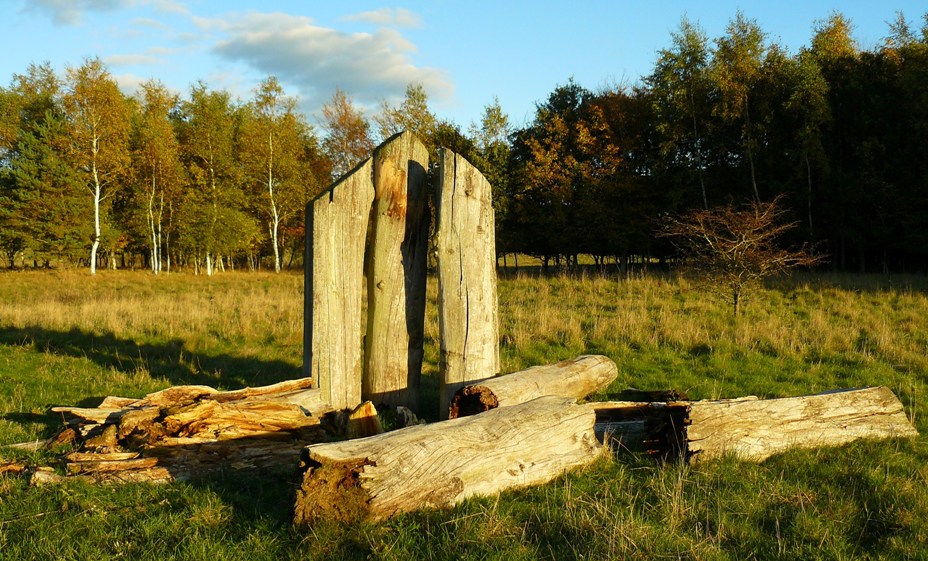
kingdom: Fungi
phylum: Basidiomycota
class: Agaricomycetes
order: Agaricales
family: Pluteaceae
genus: Pluteus
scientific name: Pluteus romellii
